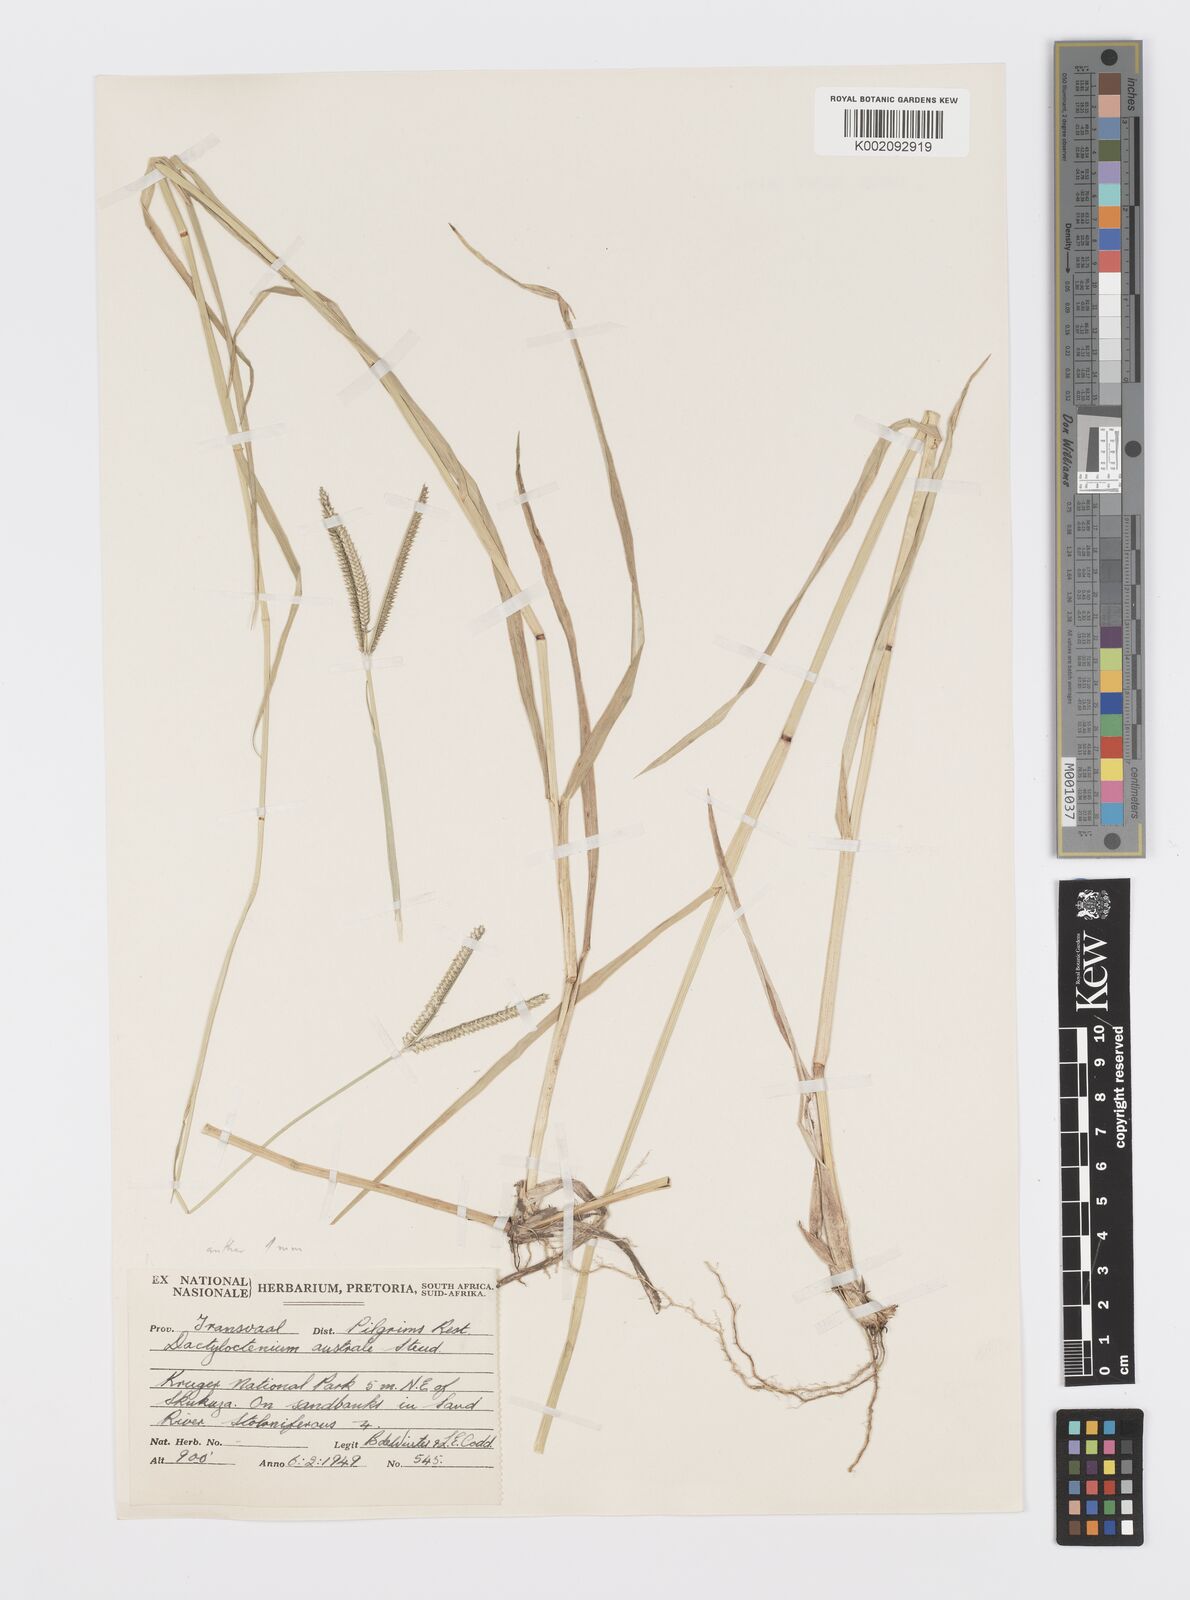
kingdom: Plantae
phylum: Tracheophyta
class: Liliopsida
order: Poales
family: Poaceae
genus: Dactyloctenium
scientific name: Dactyloctenium geminatum
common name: Crowsfoot grass
